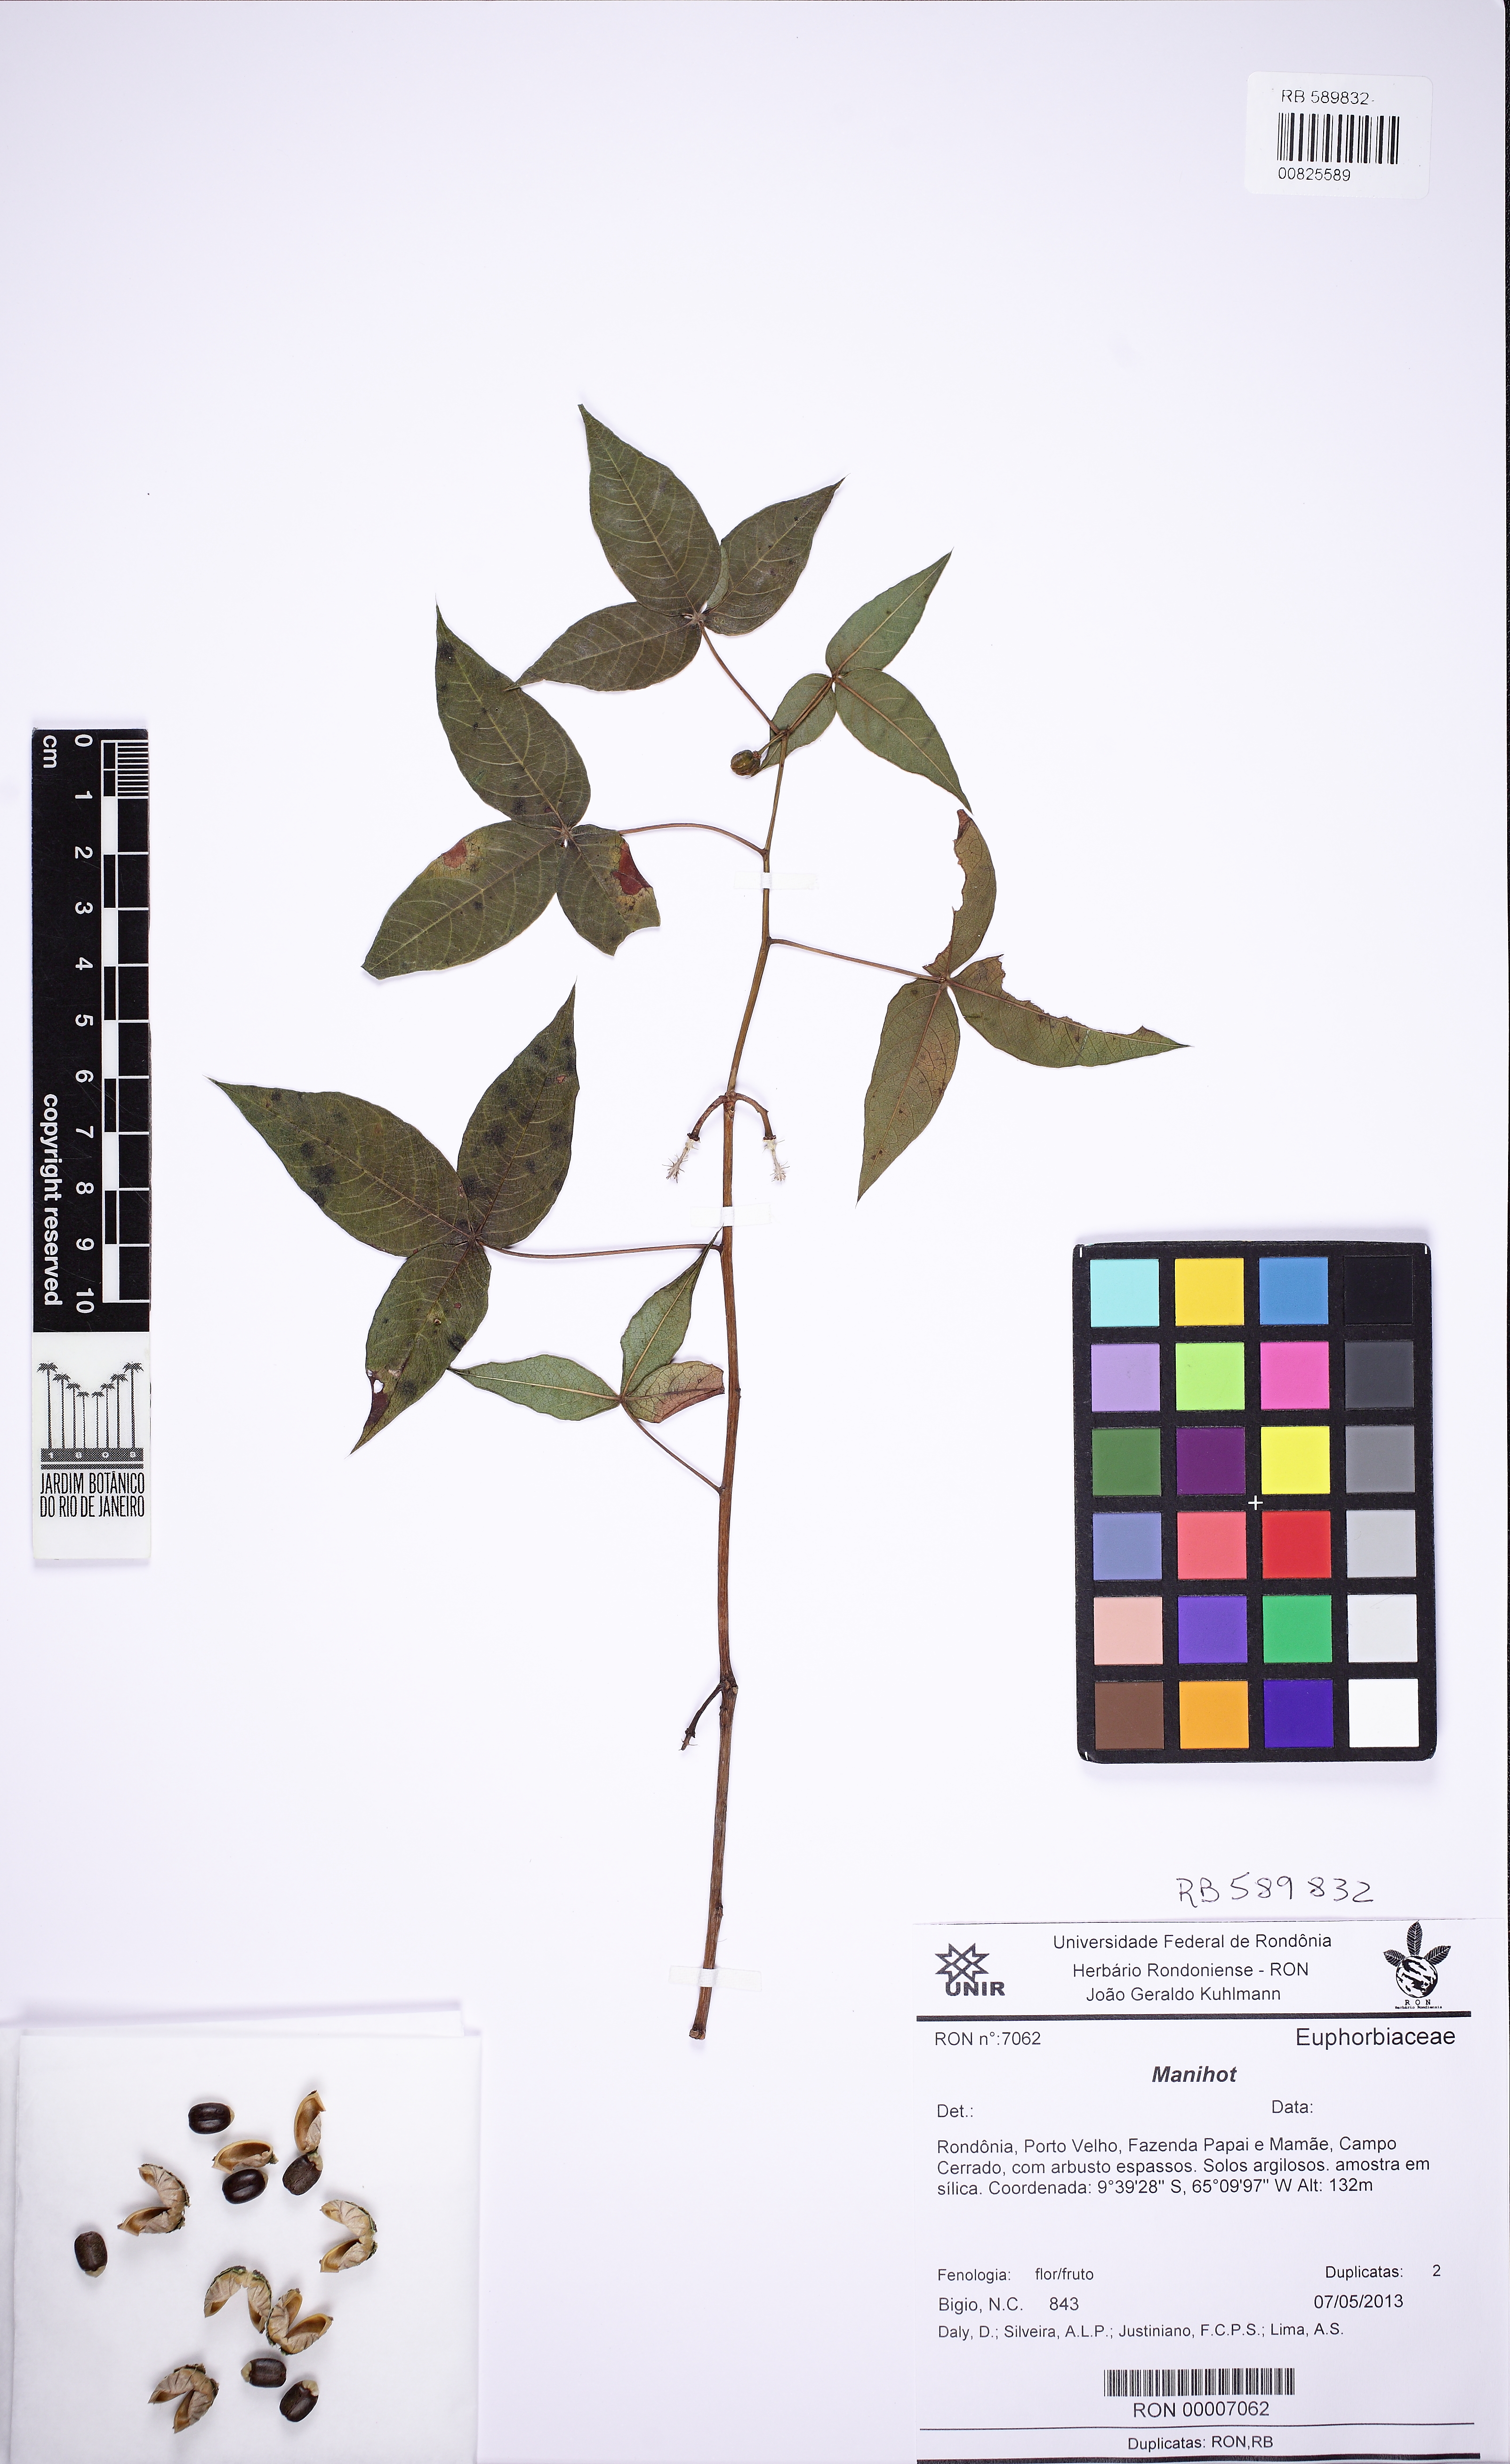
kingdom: Plantae
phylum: Tracheophyta
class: Magnoliopsida
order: Malpighiales
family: Euphorbiaceae
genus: Manihot
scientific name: Manihot xavantinensis
